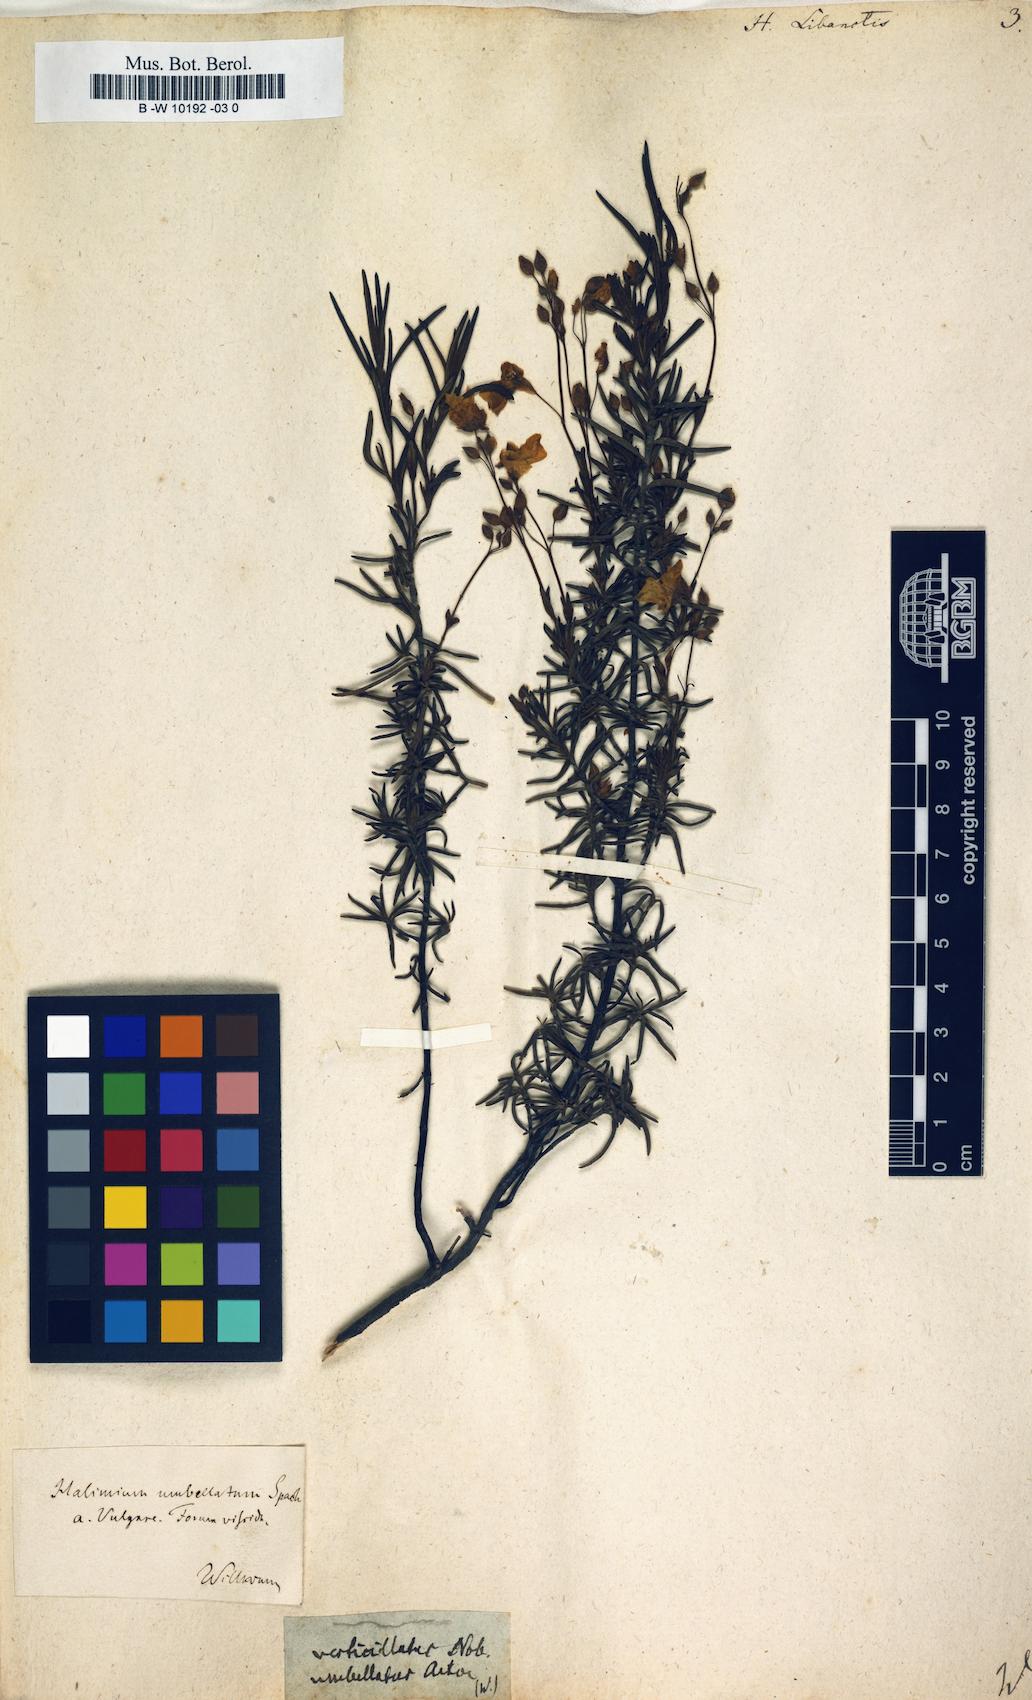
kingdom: Plantae
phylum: Tracheophyta
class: Magnoliopsida
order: Malvales
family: Cistaceae
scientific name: Cistaceae
